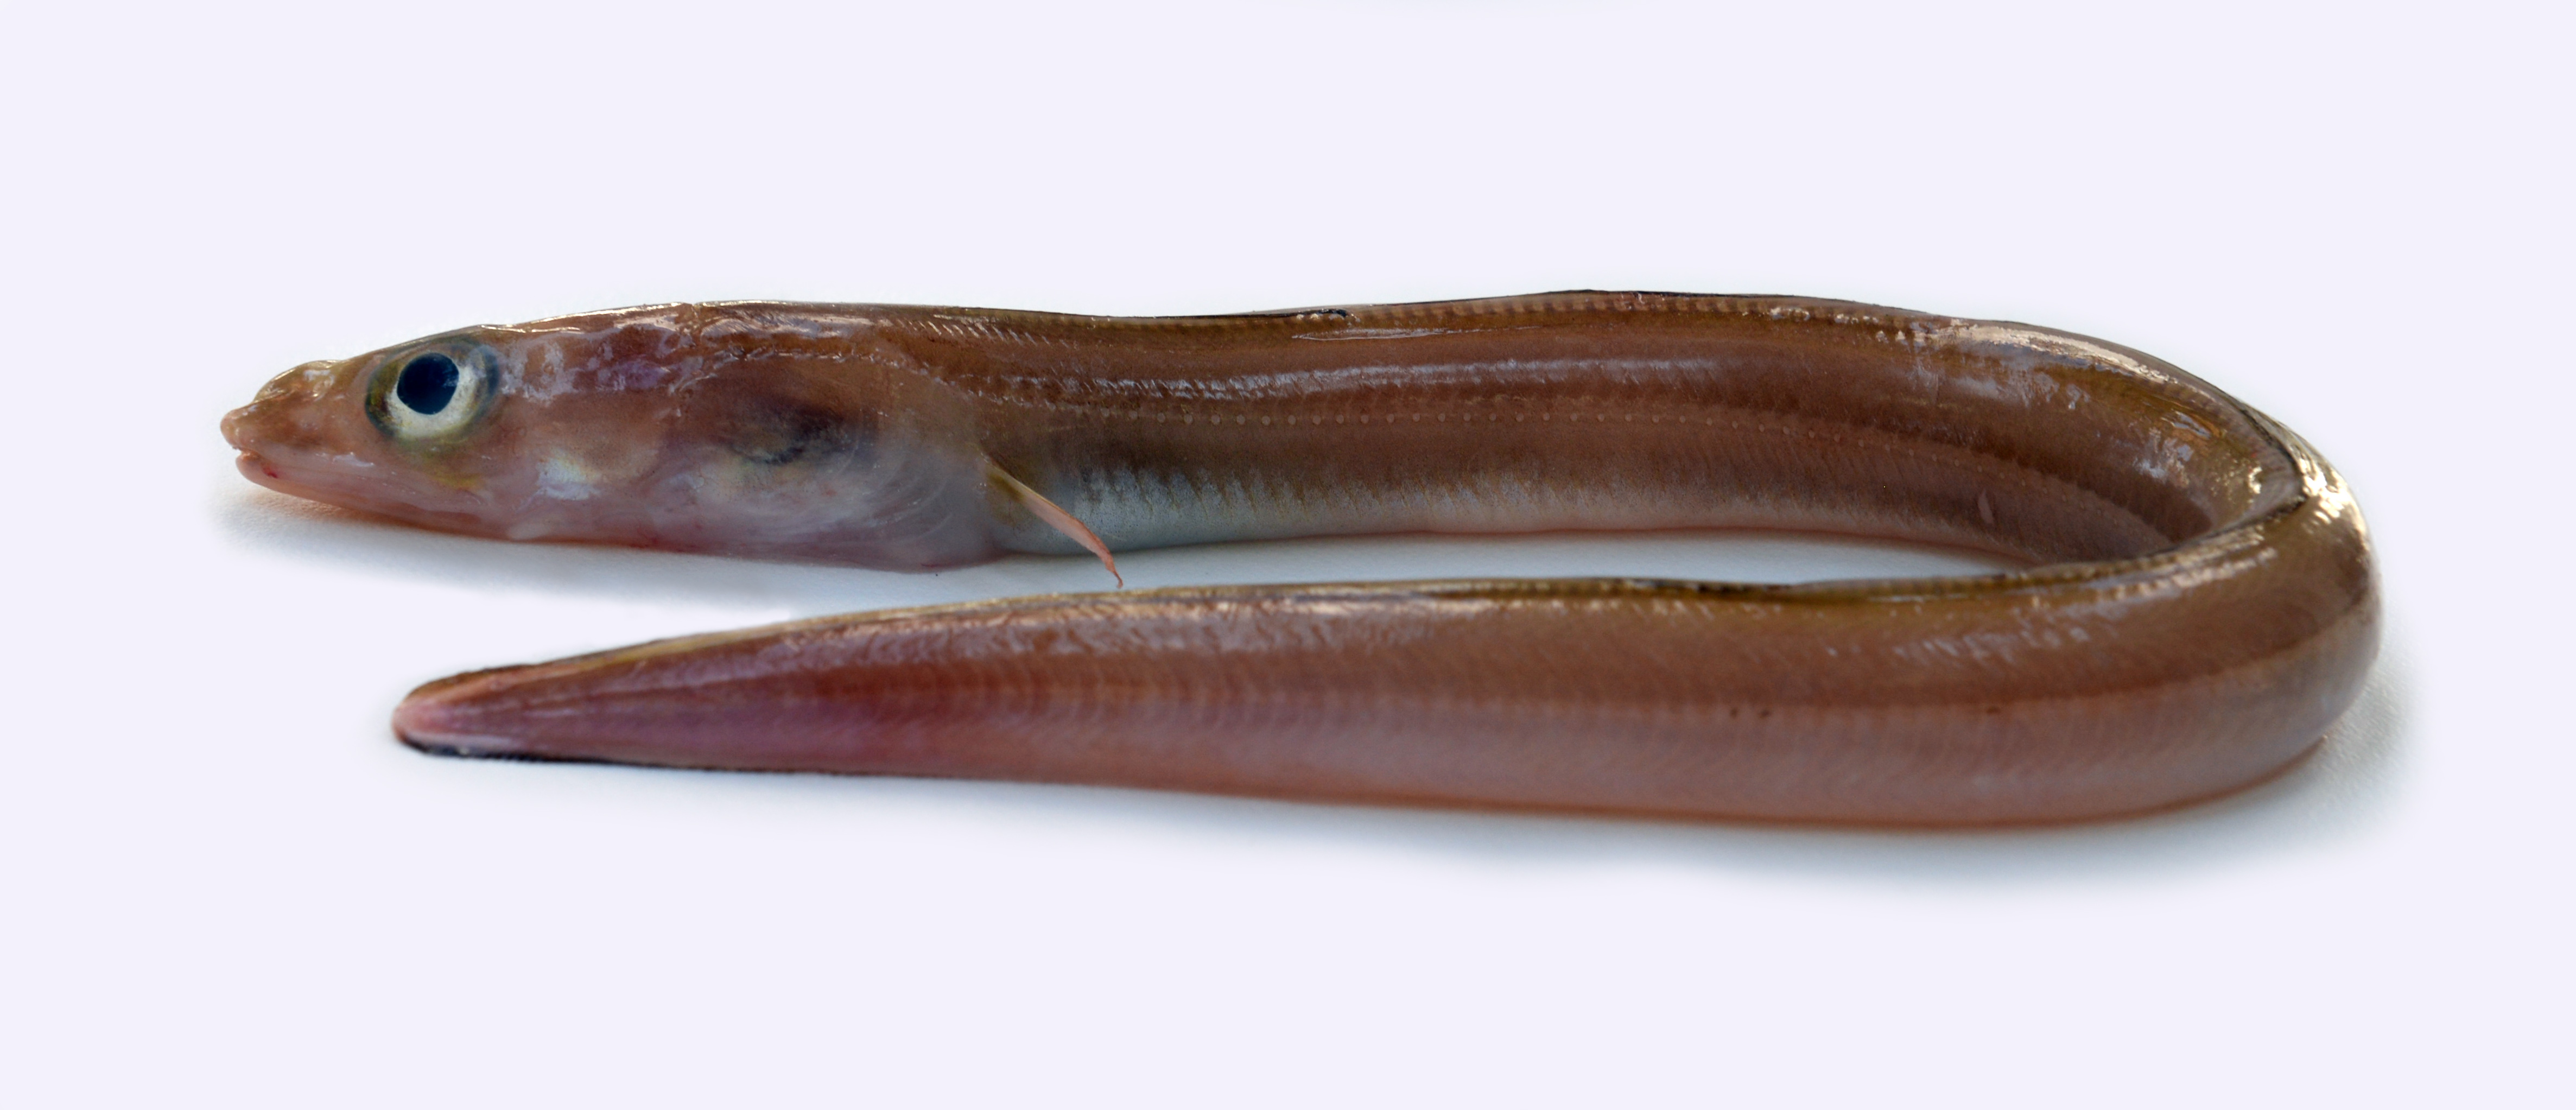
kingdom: Animalia
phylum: Chordata
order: Anguilliformes
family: Congridae
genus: Gnathophis
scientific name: Gnathophis
